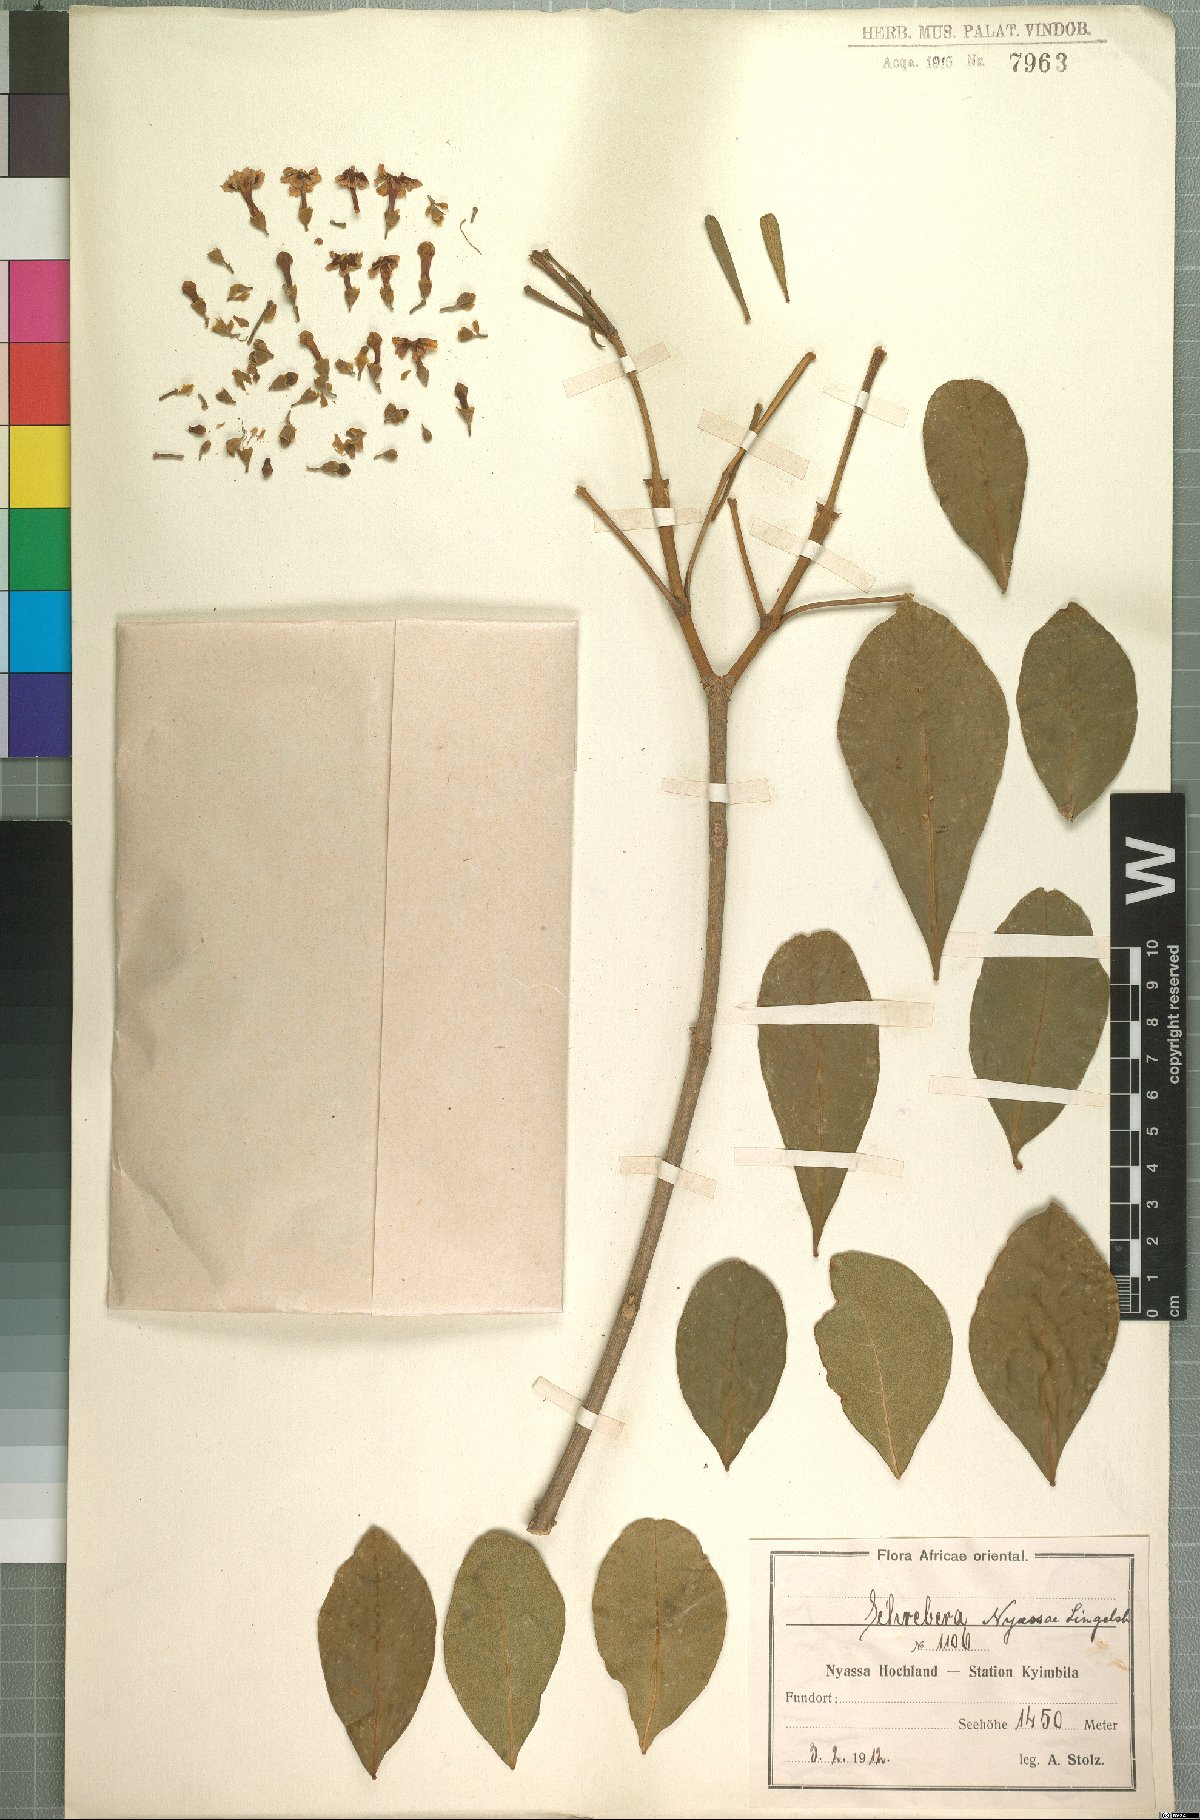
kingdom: Plantae
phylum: Tracheophyta
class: Magnoliopsida
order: Lamiales
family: Oleaceae
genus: Schrebera
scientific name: Schrebera alata
